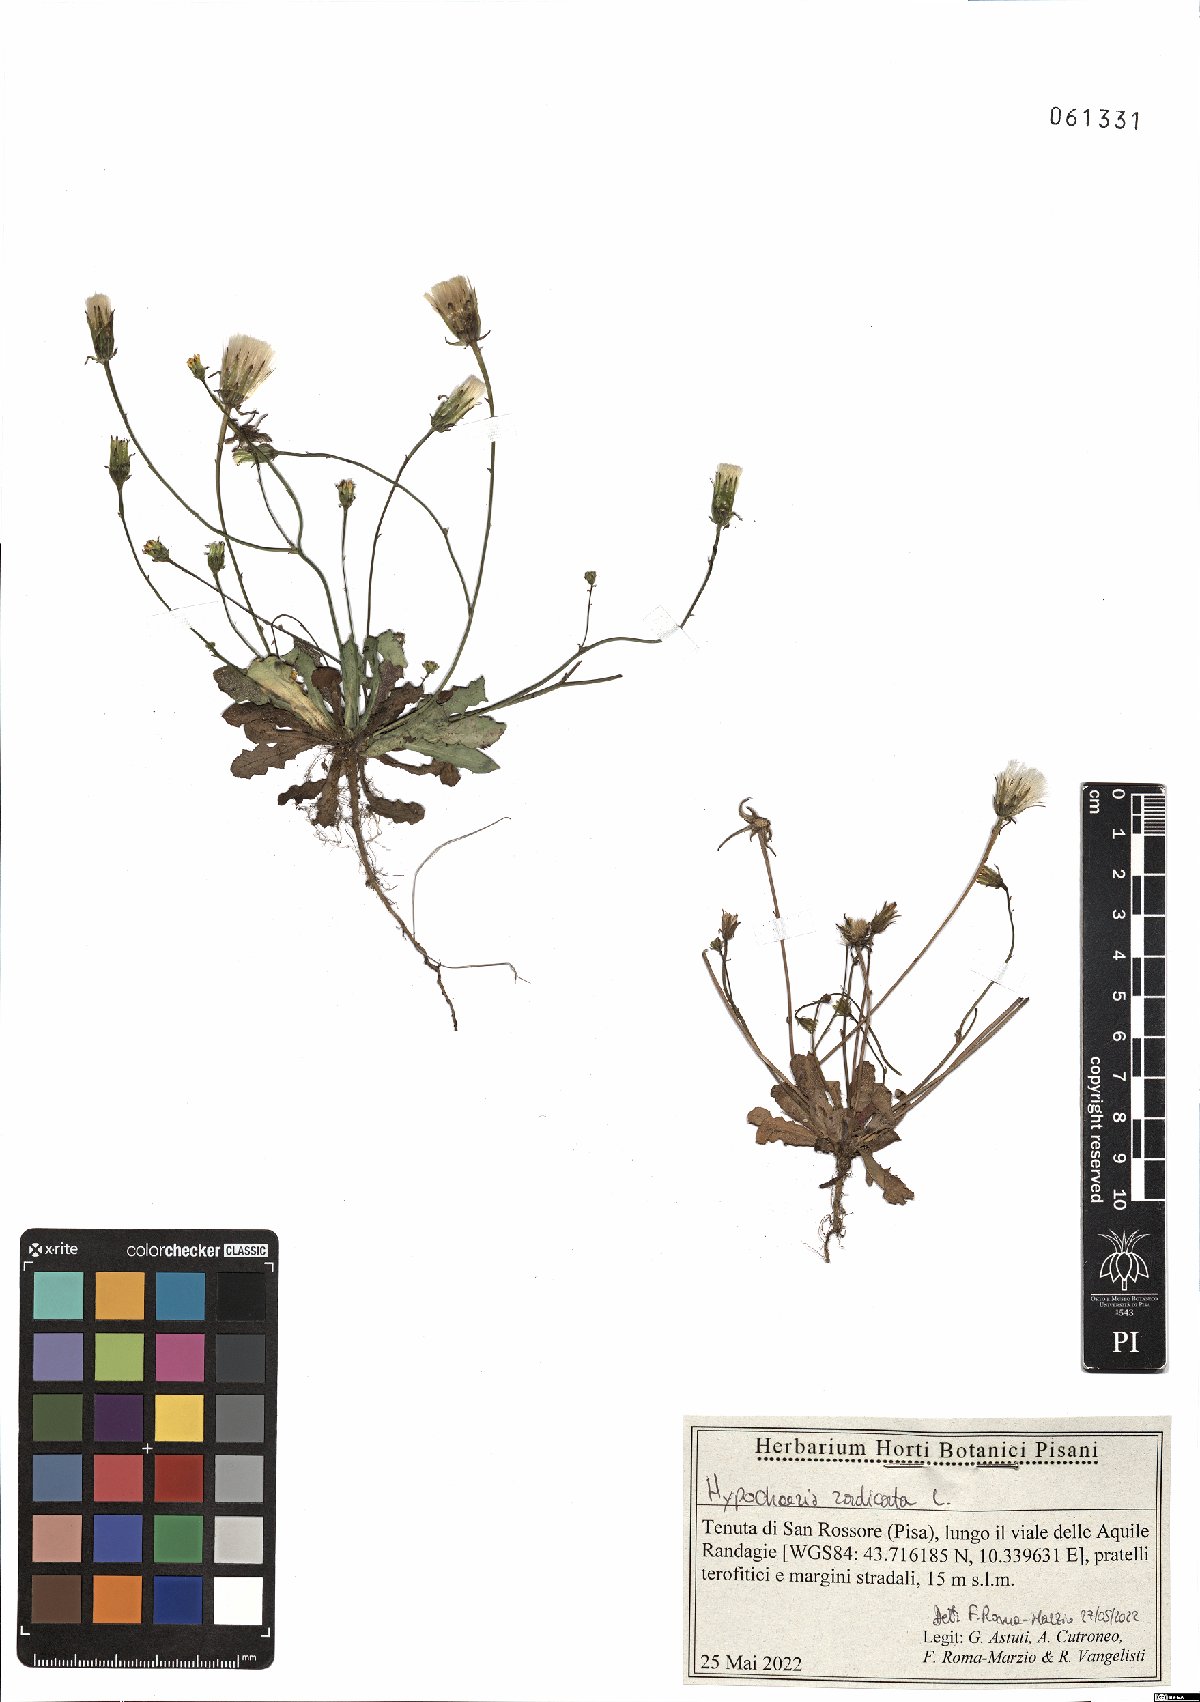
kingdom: Plantae
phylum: Tracheophyta
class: Magnoliopsida
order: Asterales
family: Asteraceae
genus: Hypochaeris
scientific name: Hypochaeris radicata
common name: Flatweed
